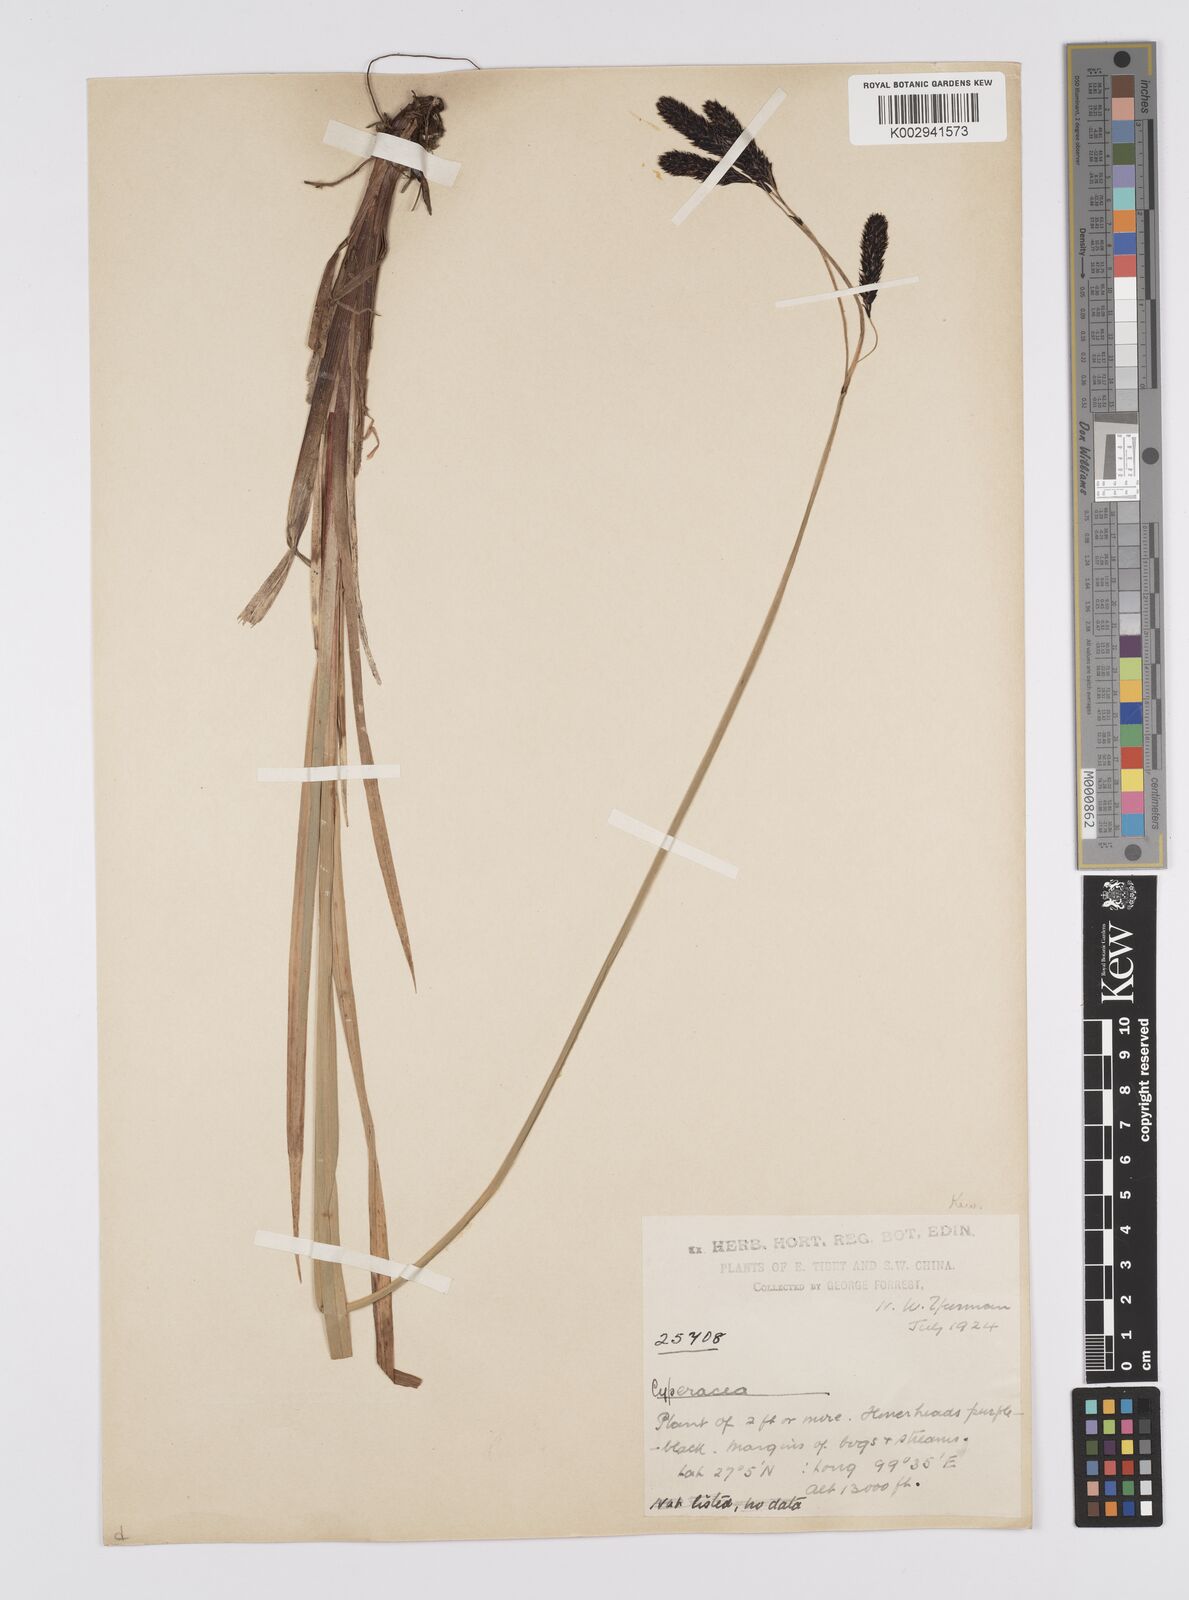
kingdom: Plantae
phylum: Tracheophyta
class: Liliopsida
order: Poales
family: Cyperaceae
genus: Carex
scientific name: Carex nivalis
